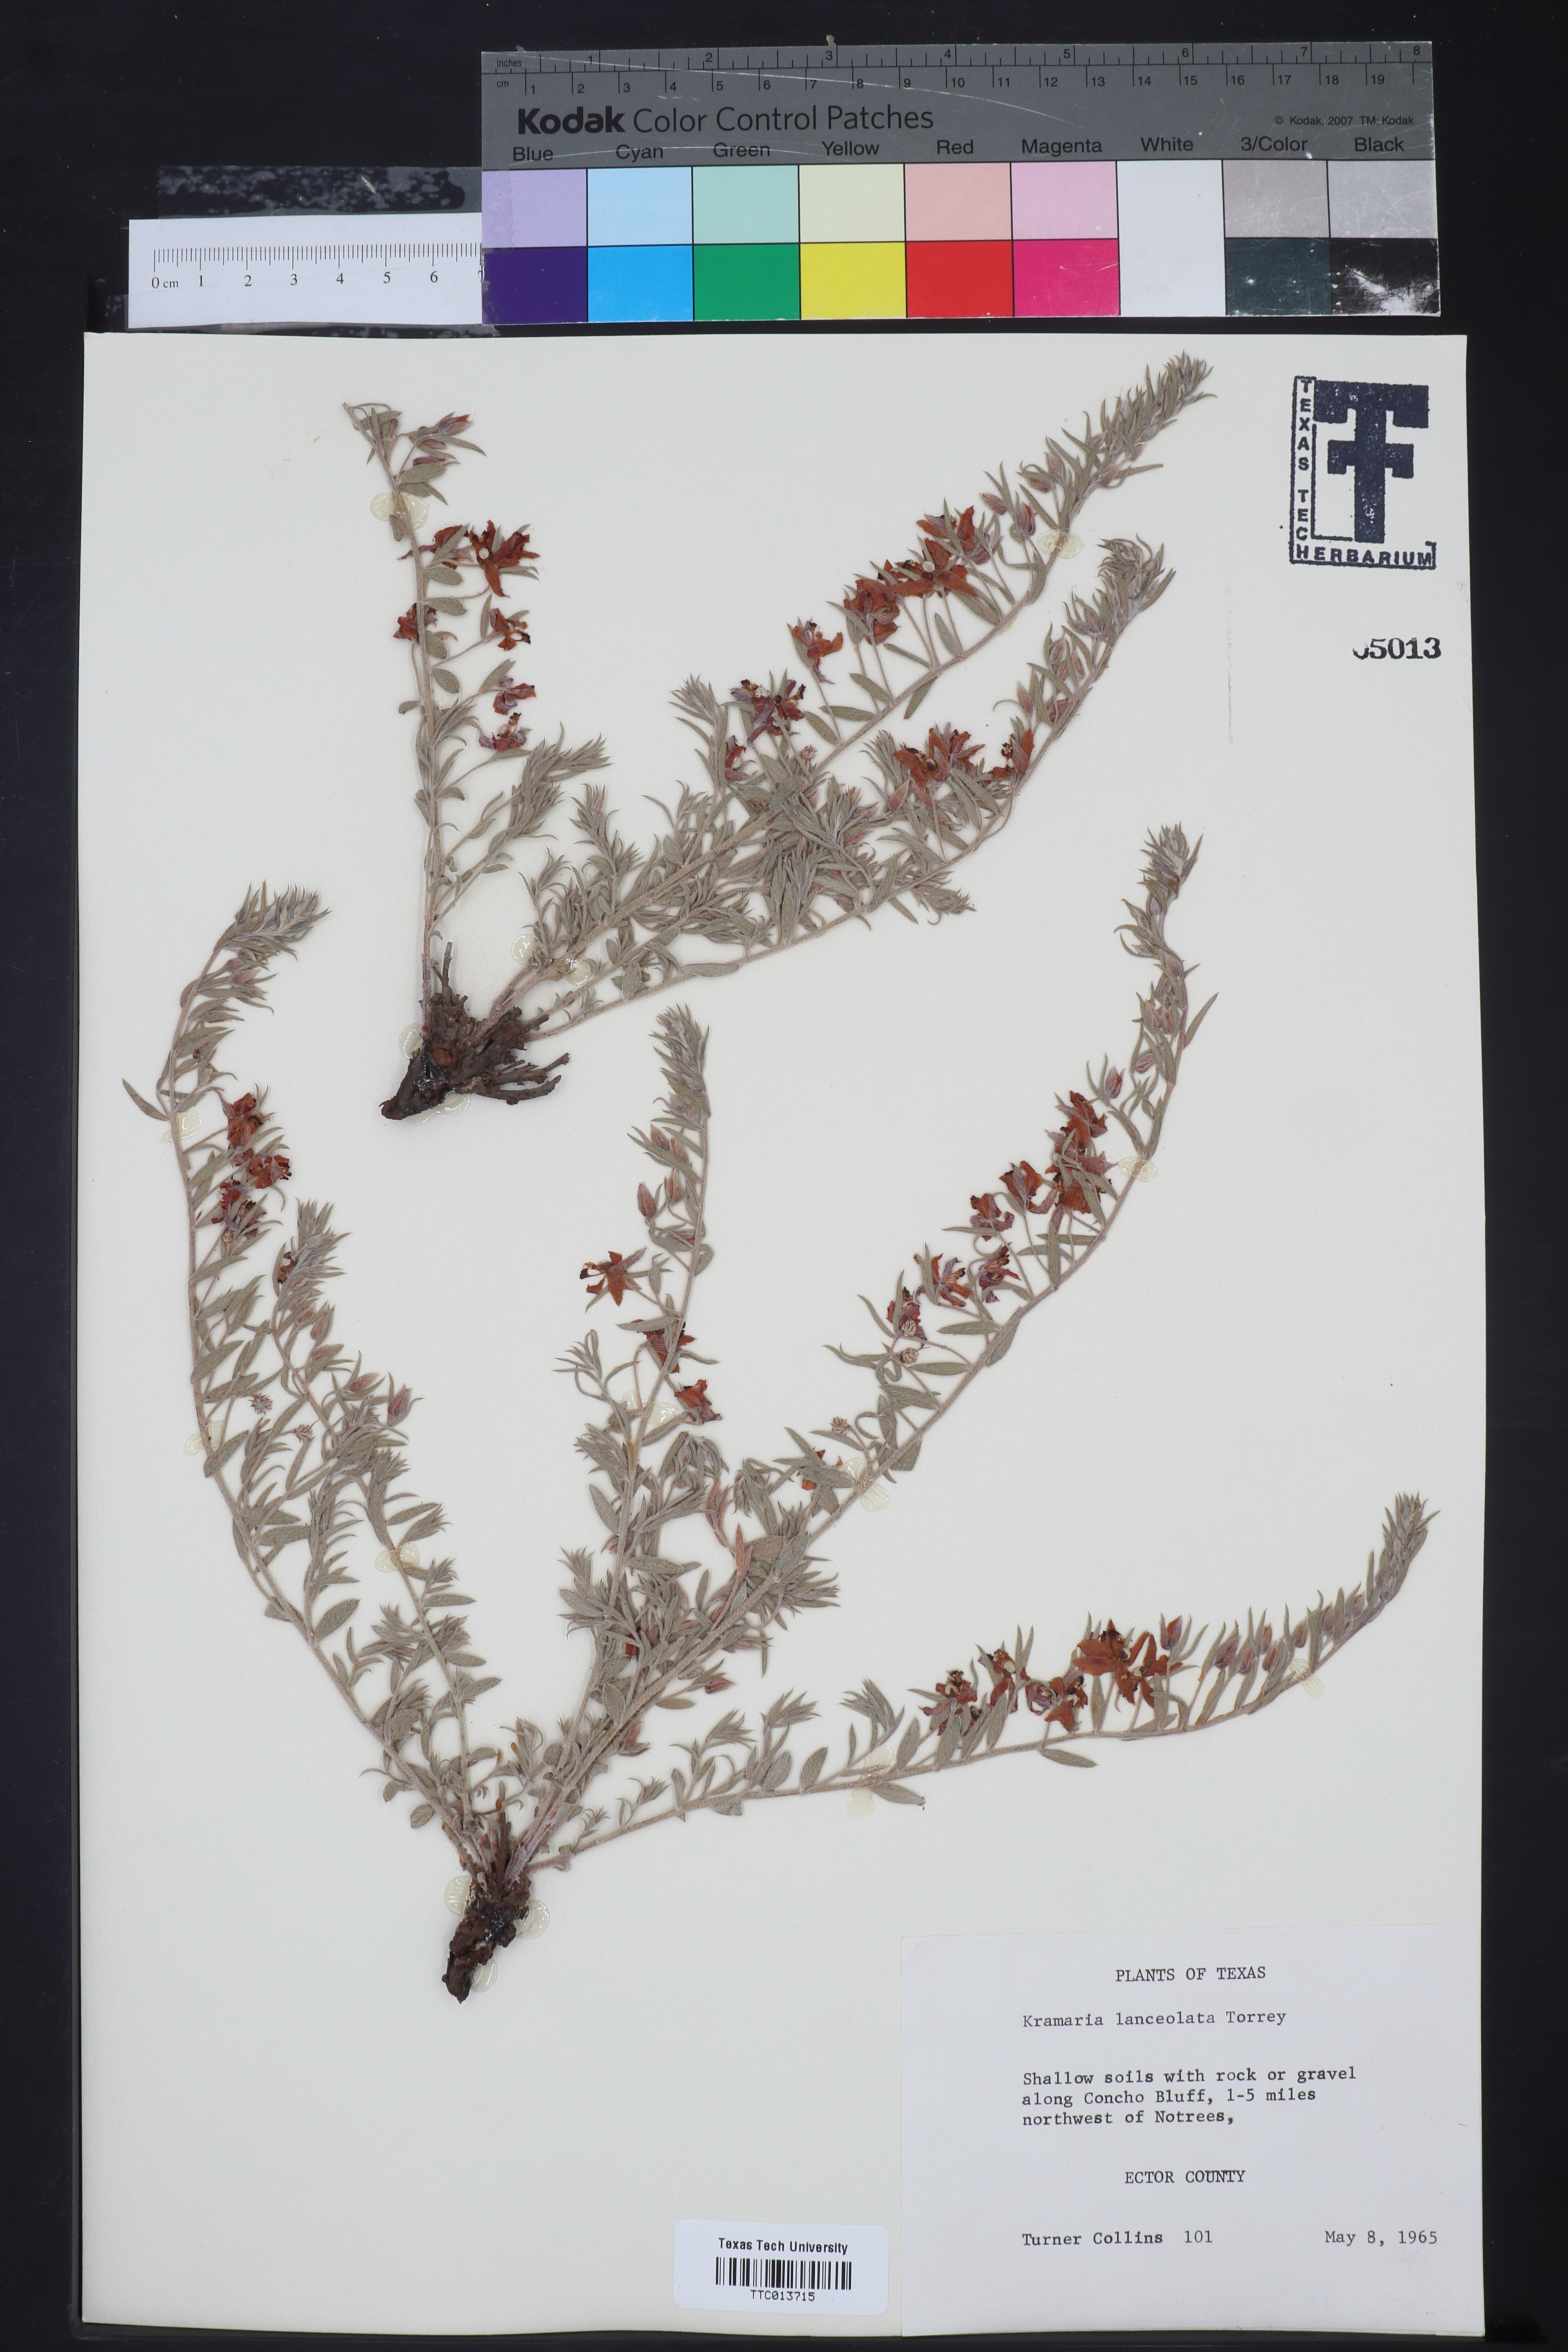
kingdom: Plantae
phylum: Tracheophyta
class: Magnoliopsida
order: Zygophyllales
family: Krameriaceae
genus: Krameria
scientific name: Krameria lanceolata
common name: Ratany
